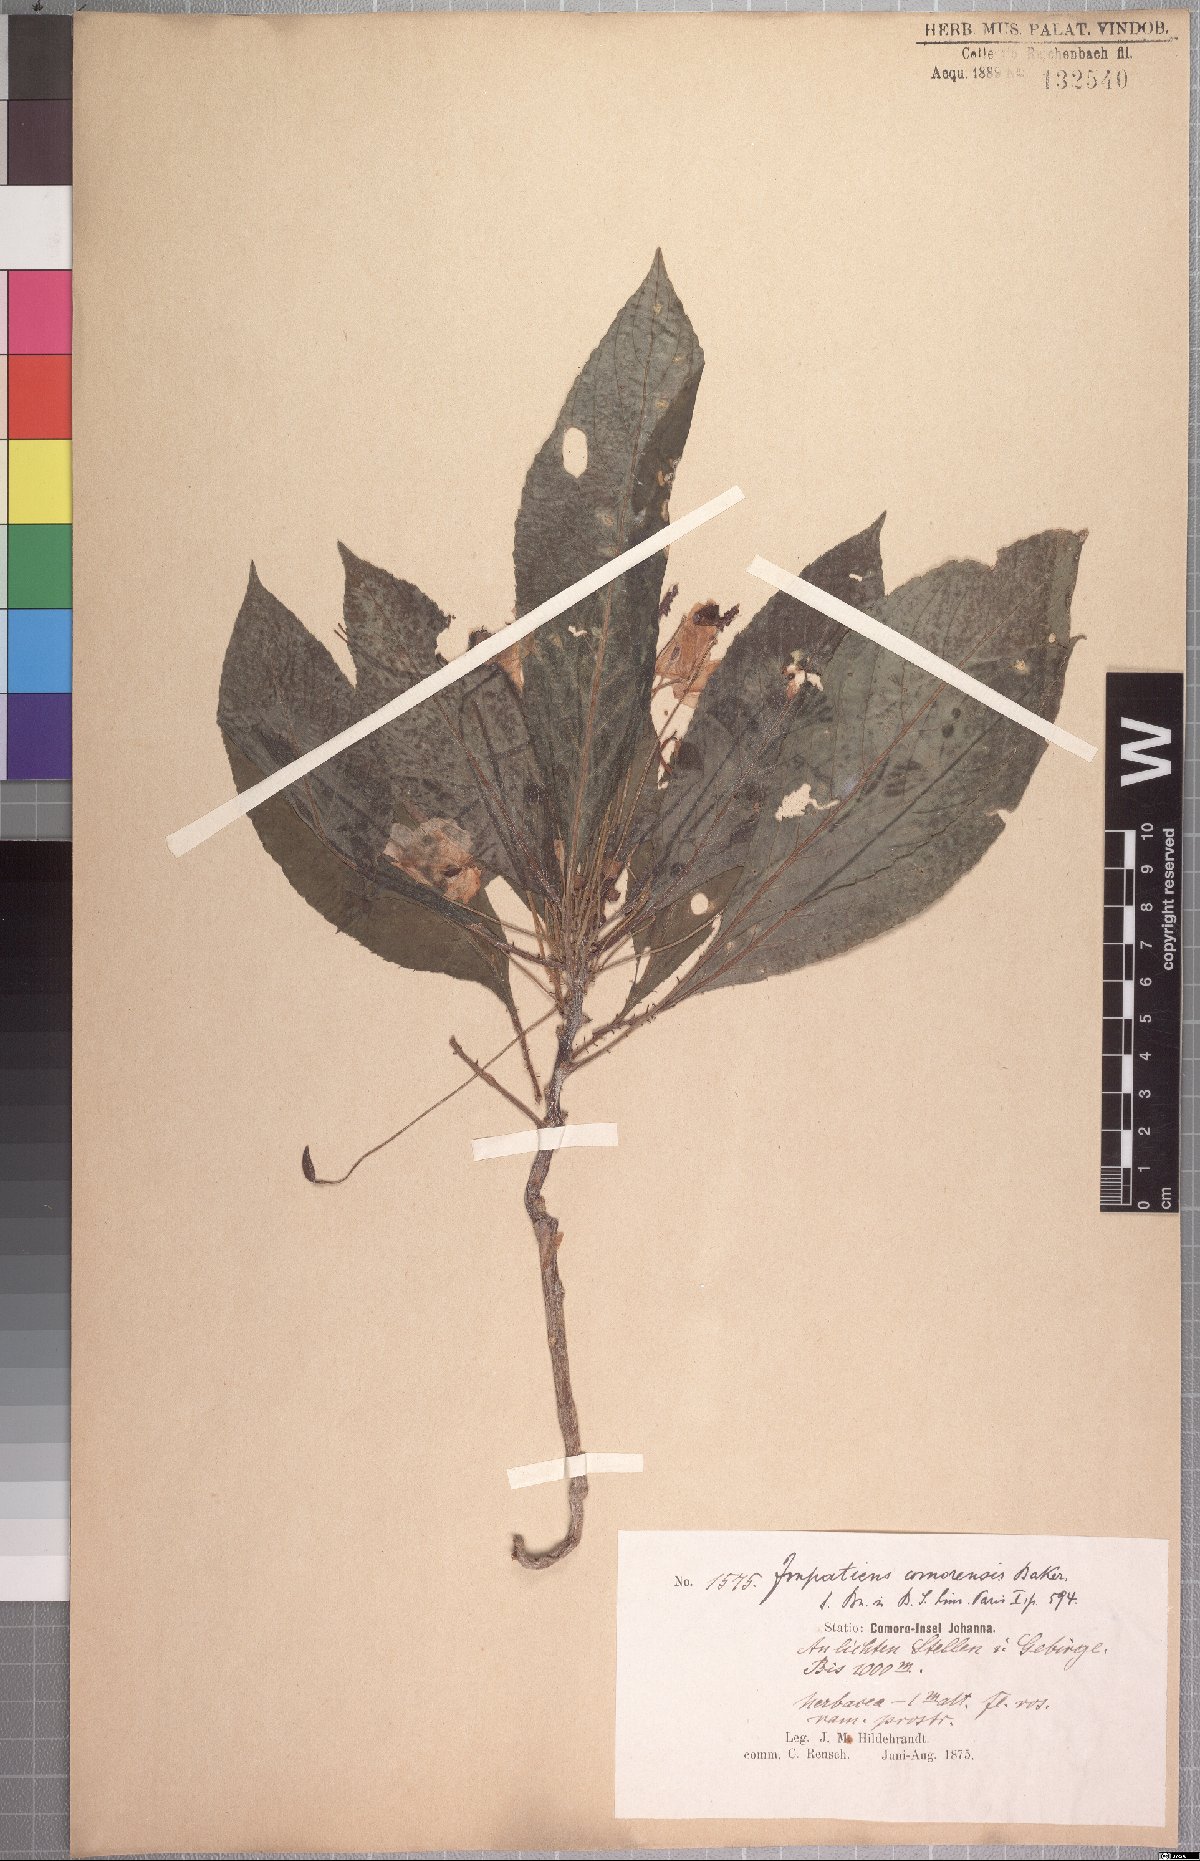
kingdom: Plantae
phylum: Tracheophyta
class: Magnoliopsida
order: Ericales
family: Balsaminaceae
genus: Impatiens
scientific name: Impatiens comorensis
